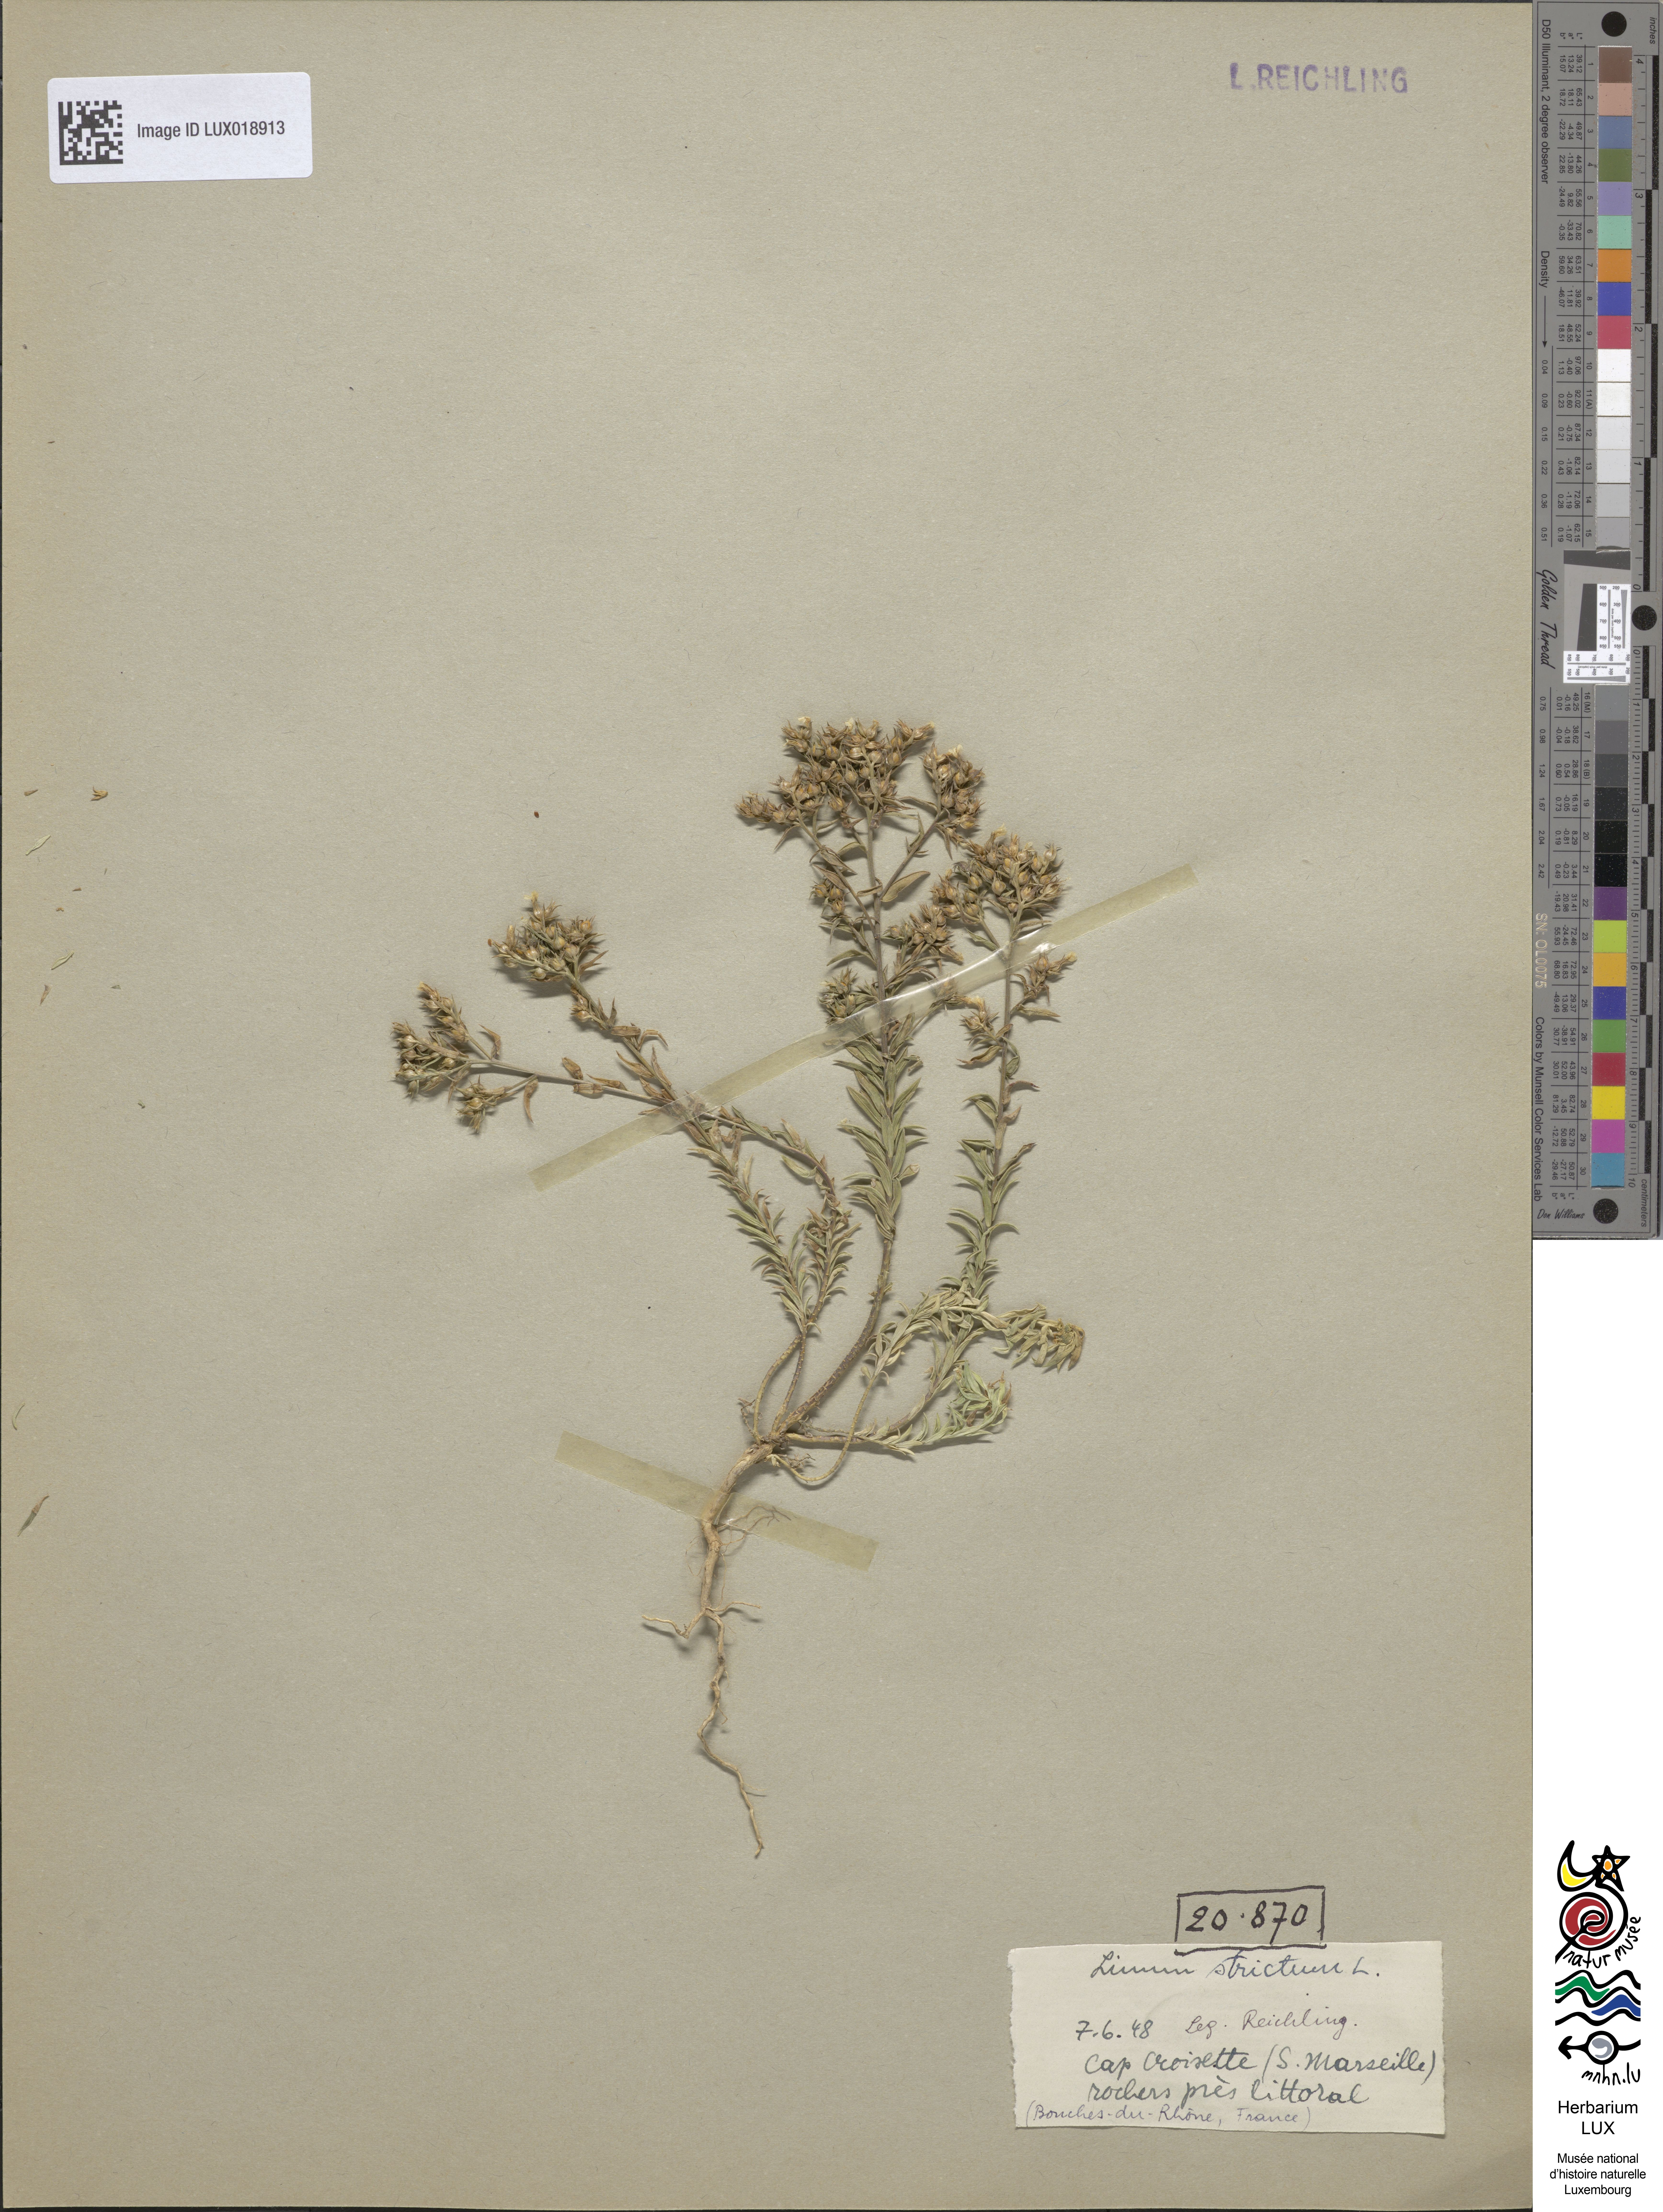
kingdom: Plantae
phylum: Tracheophyta
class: Magnoliopsida
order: Malpighiales
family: Linaceae
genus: Linum
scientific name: Linum strictum
